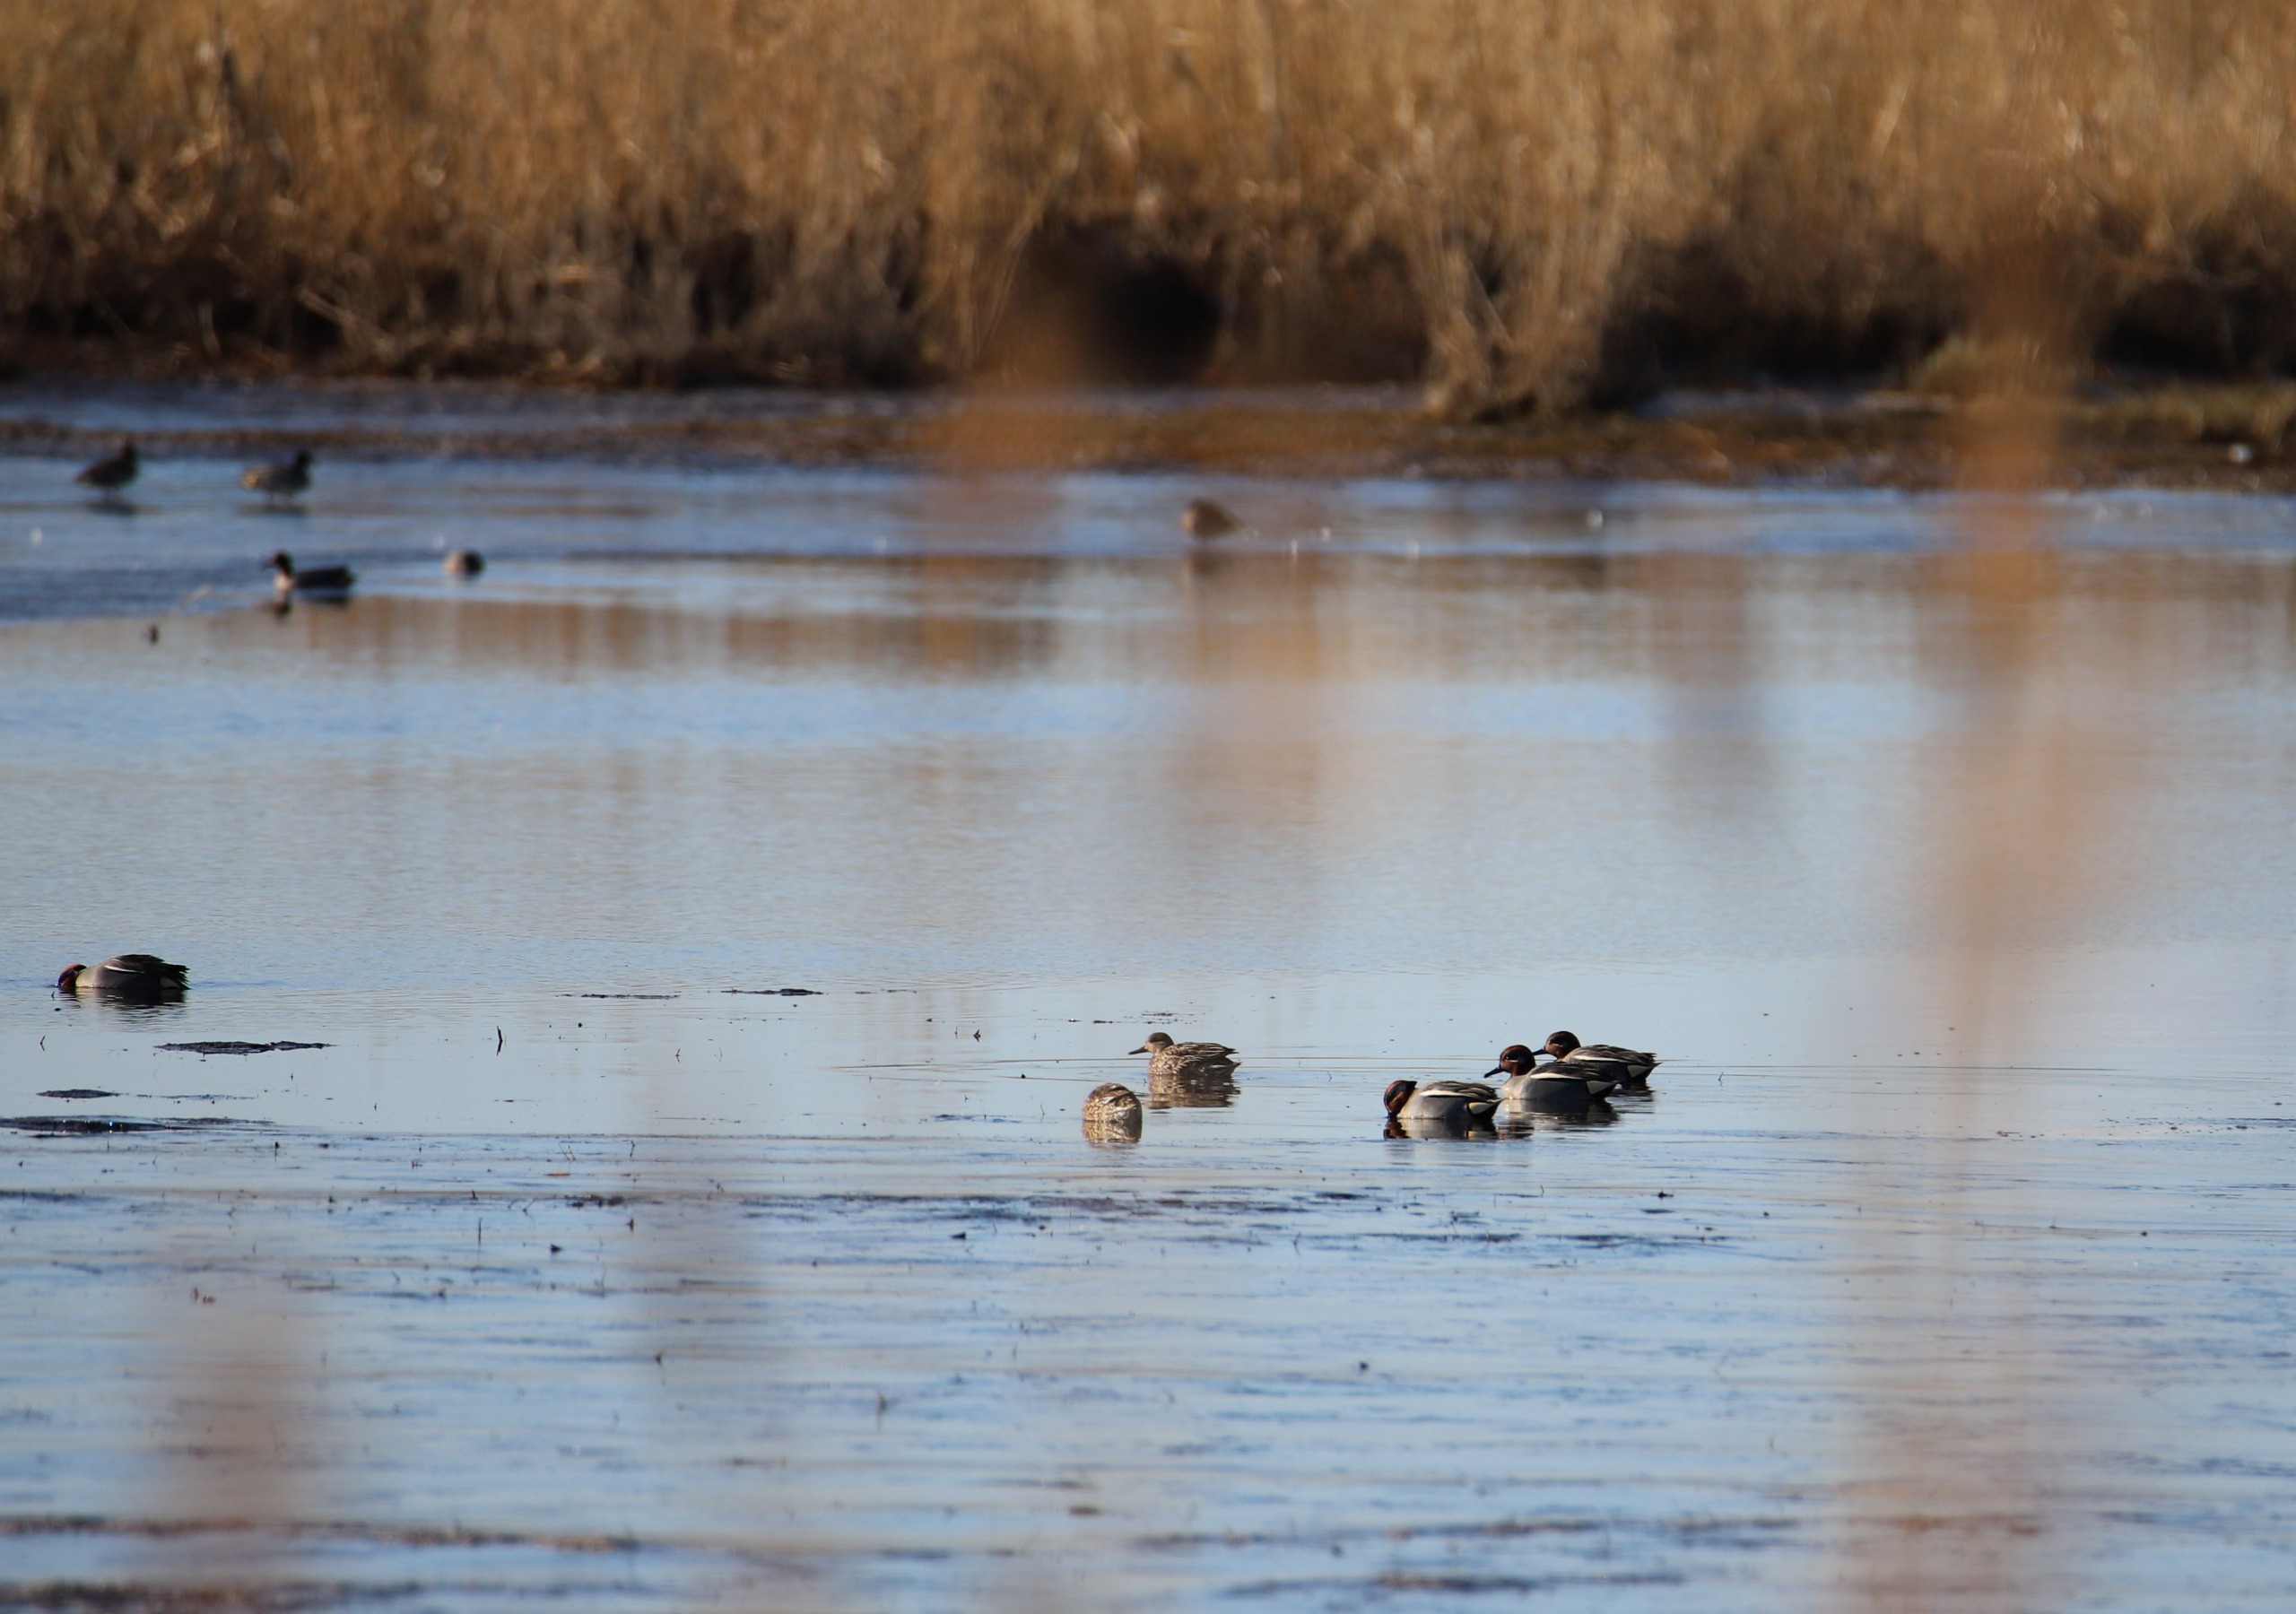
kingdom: Animalia
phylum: Chordata
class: Aves
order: Anseriformes
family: Anatidae
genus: Anas
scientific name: Anas crecca
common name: Krikand
